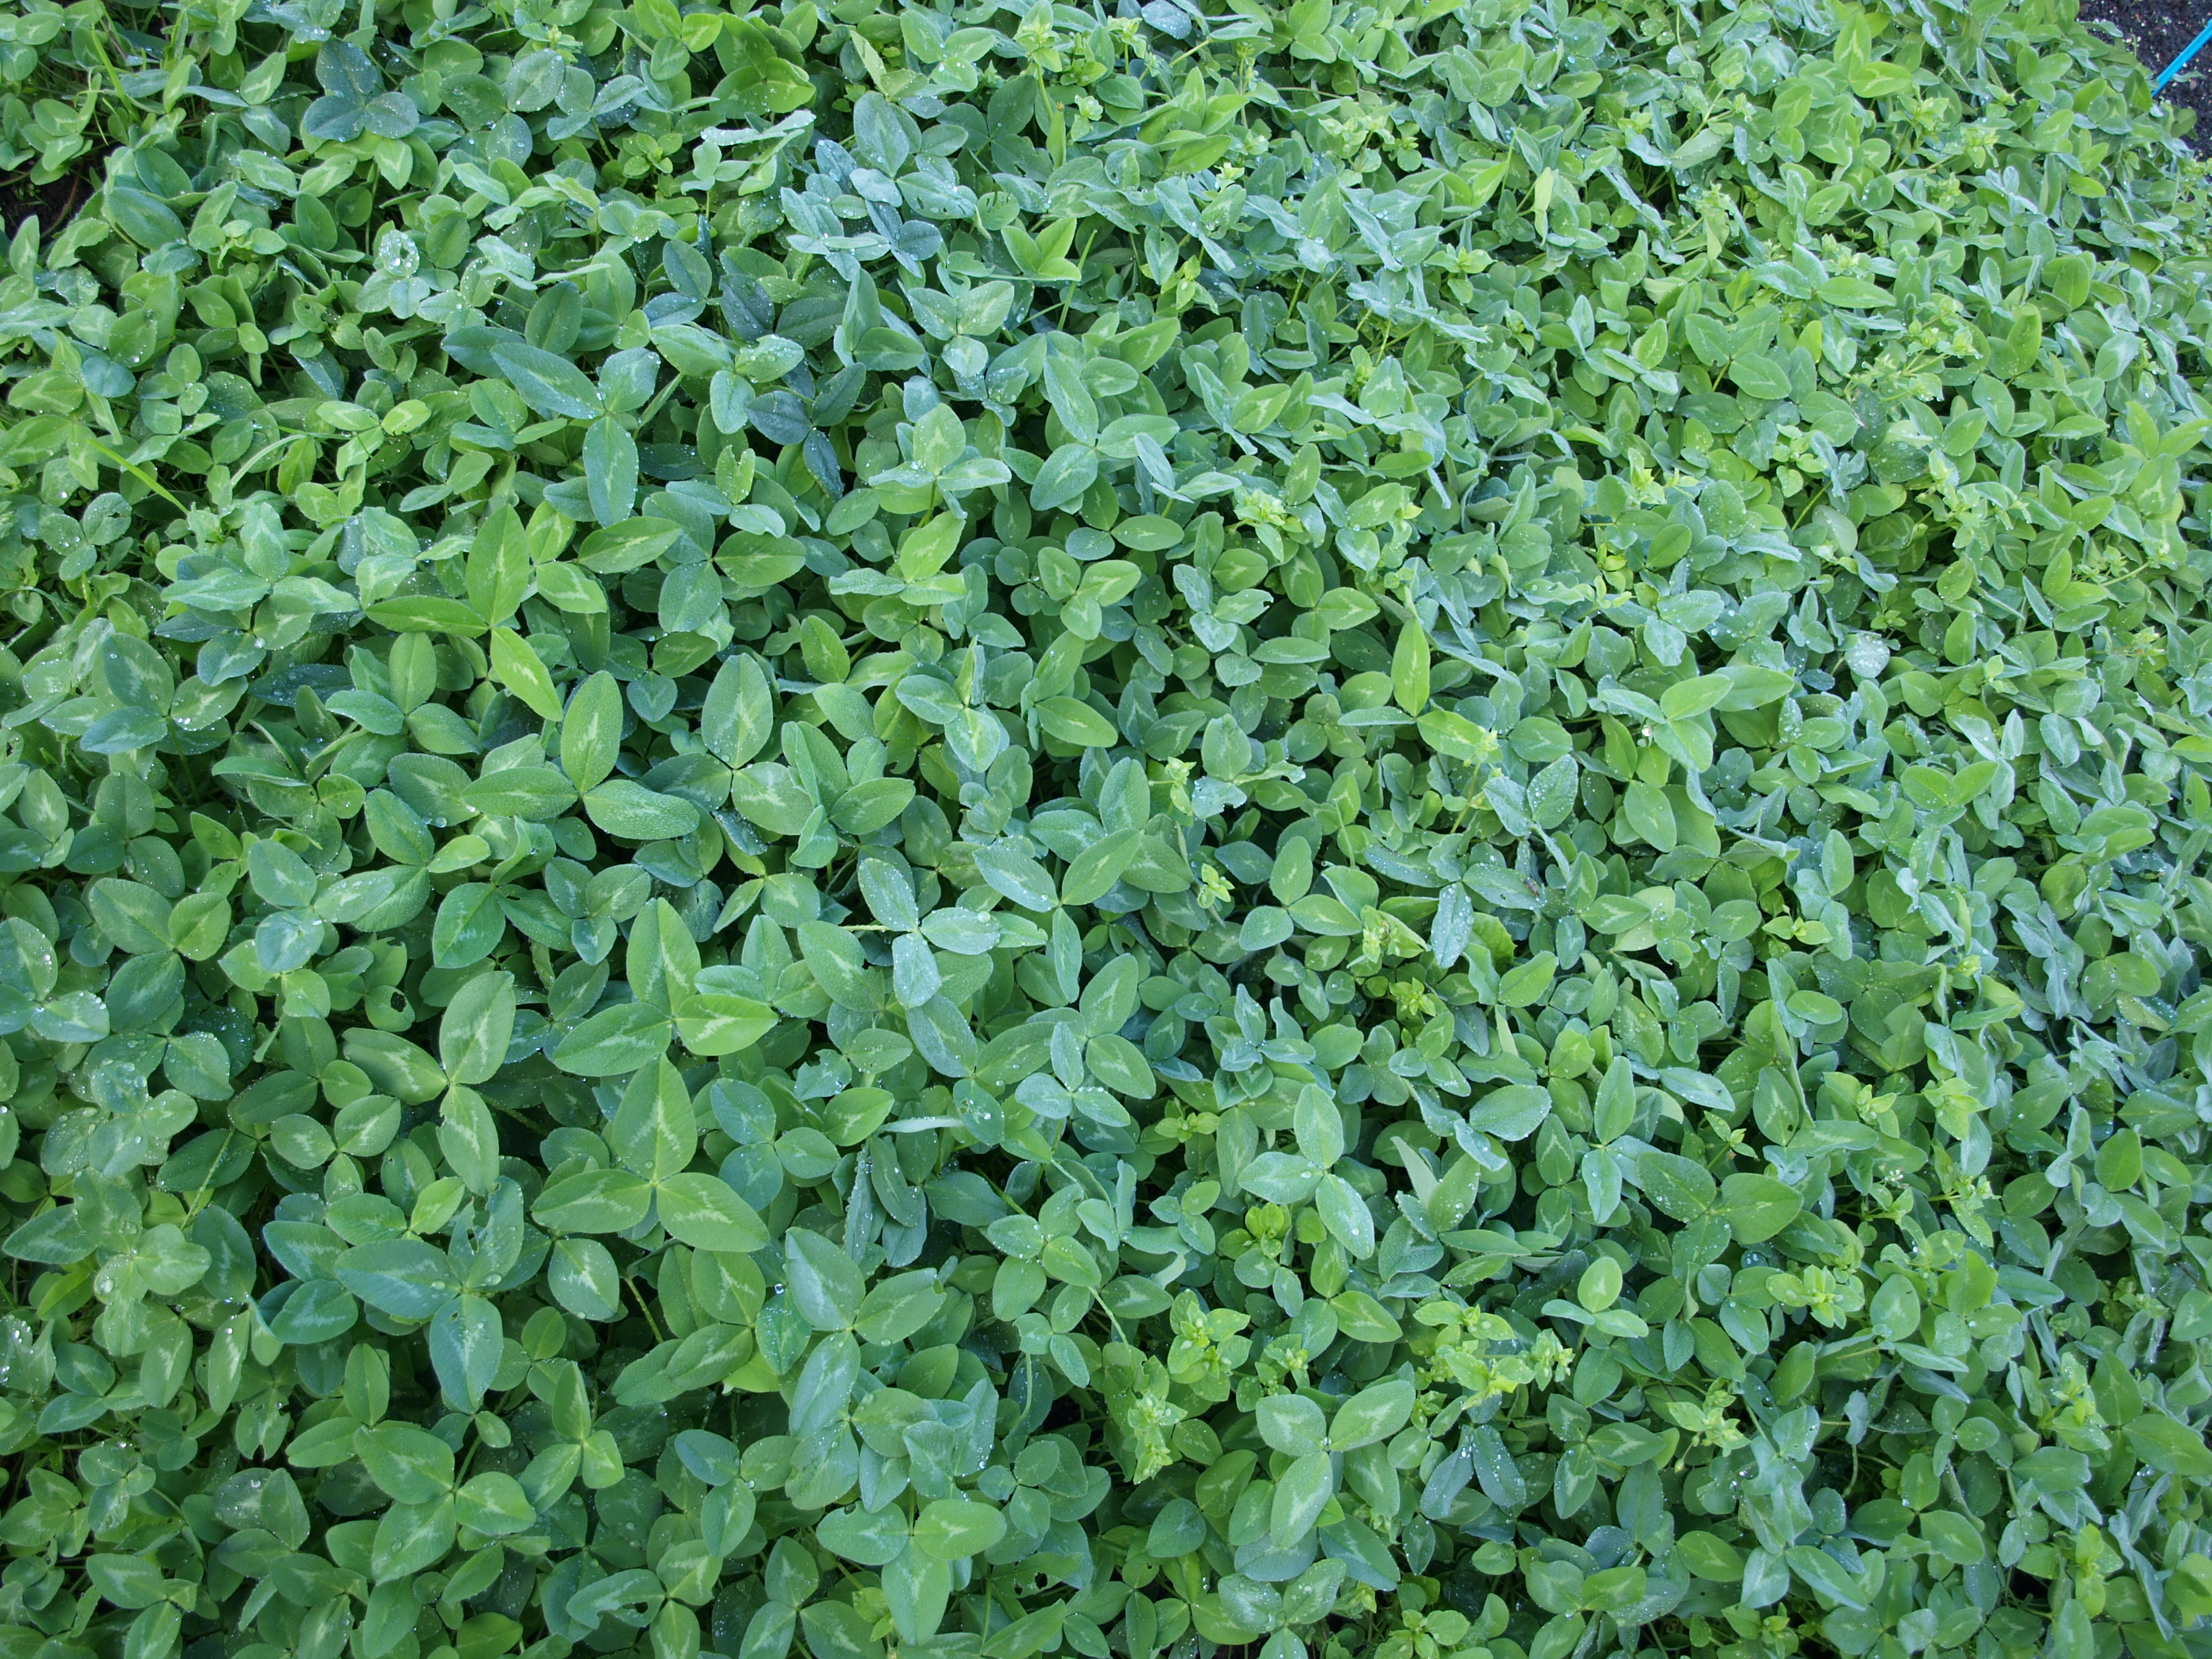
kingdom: Plantae
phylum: Tracheophyta
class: Magnoliopsida
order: Fabales
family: Fabaceae
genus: Trifolium
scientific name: Trifolium pratense
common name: Red clover
